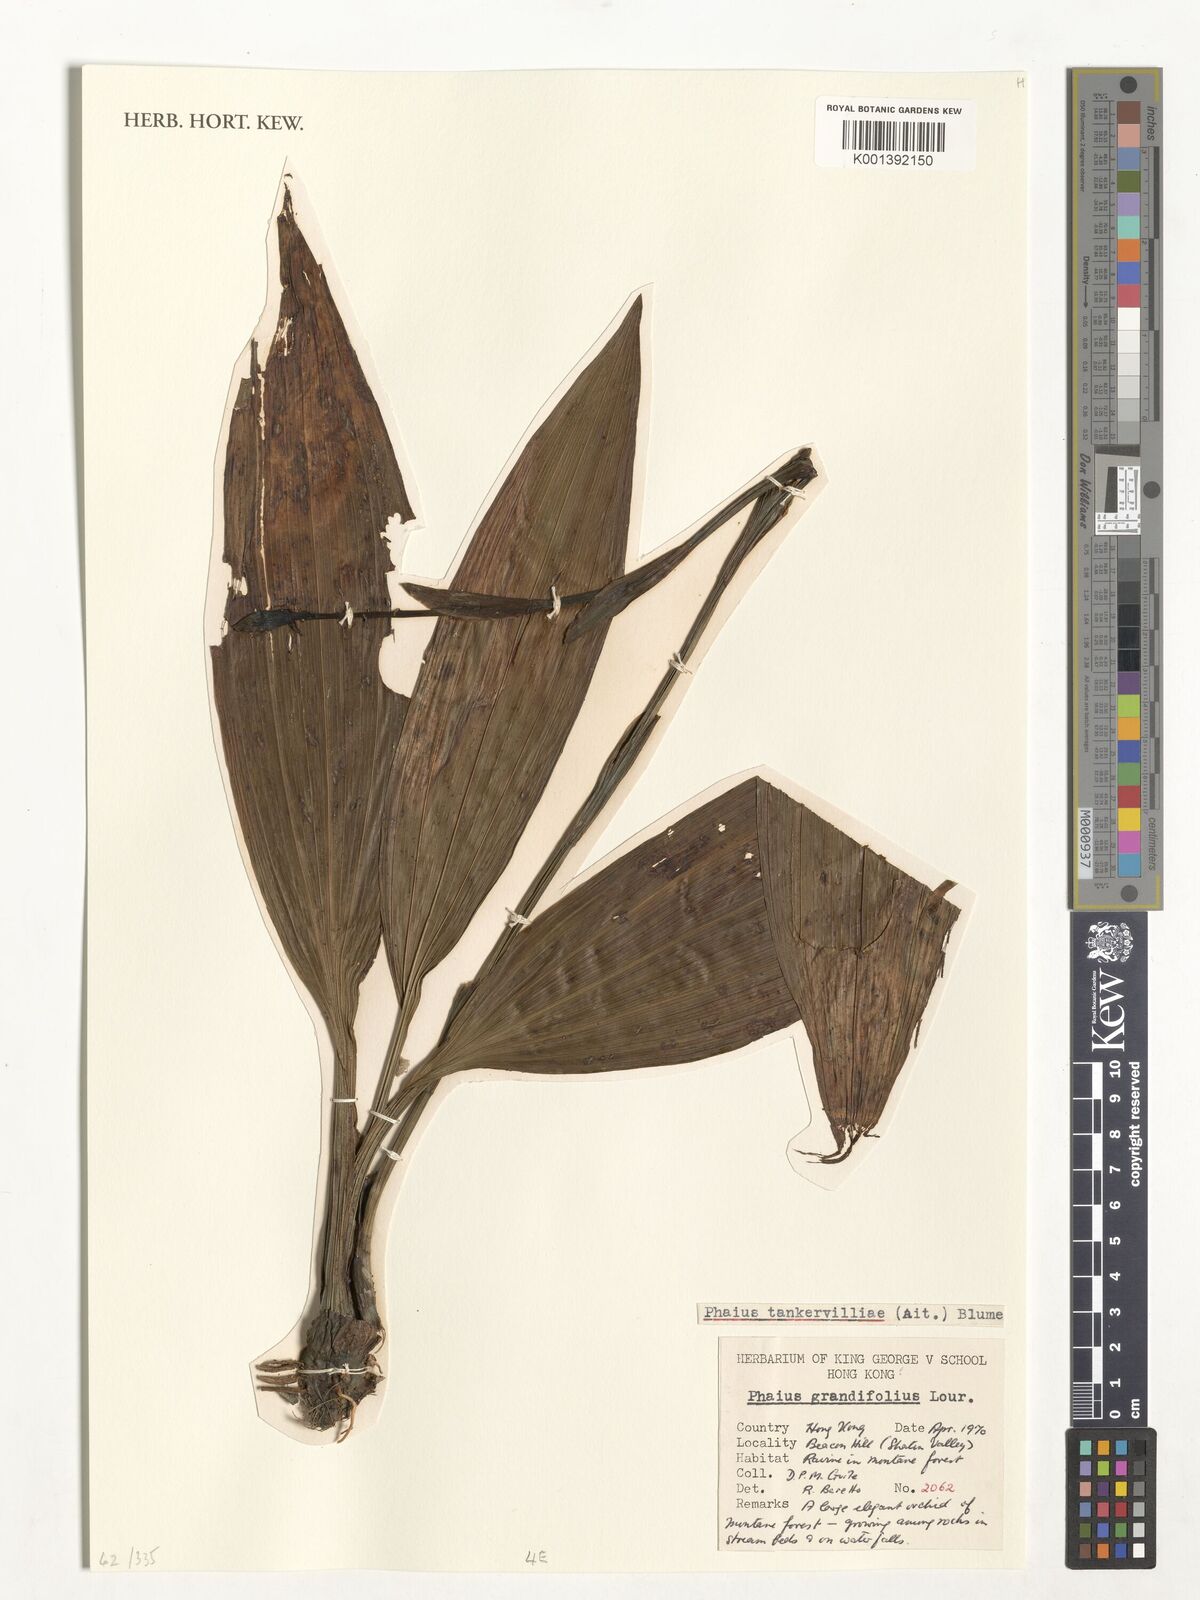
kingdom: Plantae
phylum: Tracheophyta
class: Liliopsida
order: Asparagales
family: Orchidaceae
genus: Calanthe
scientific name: Calanthe tankervilleae
